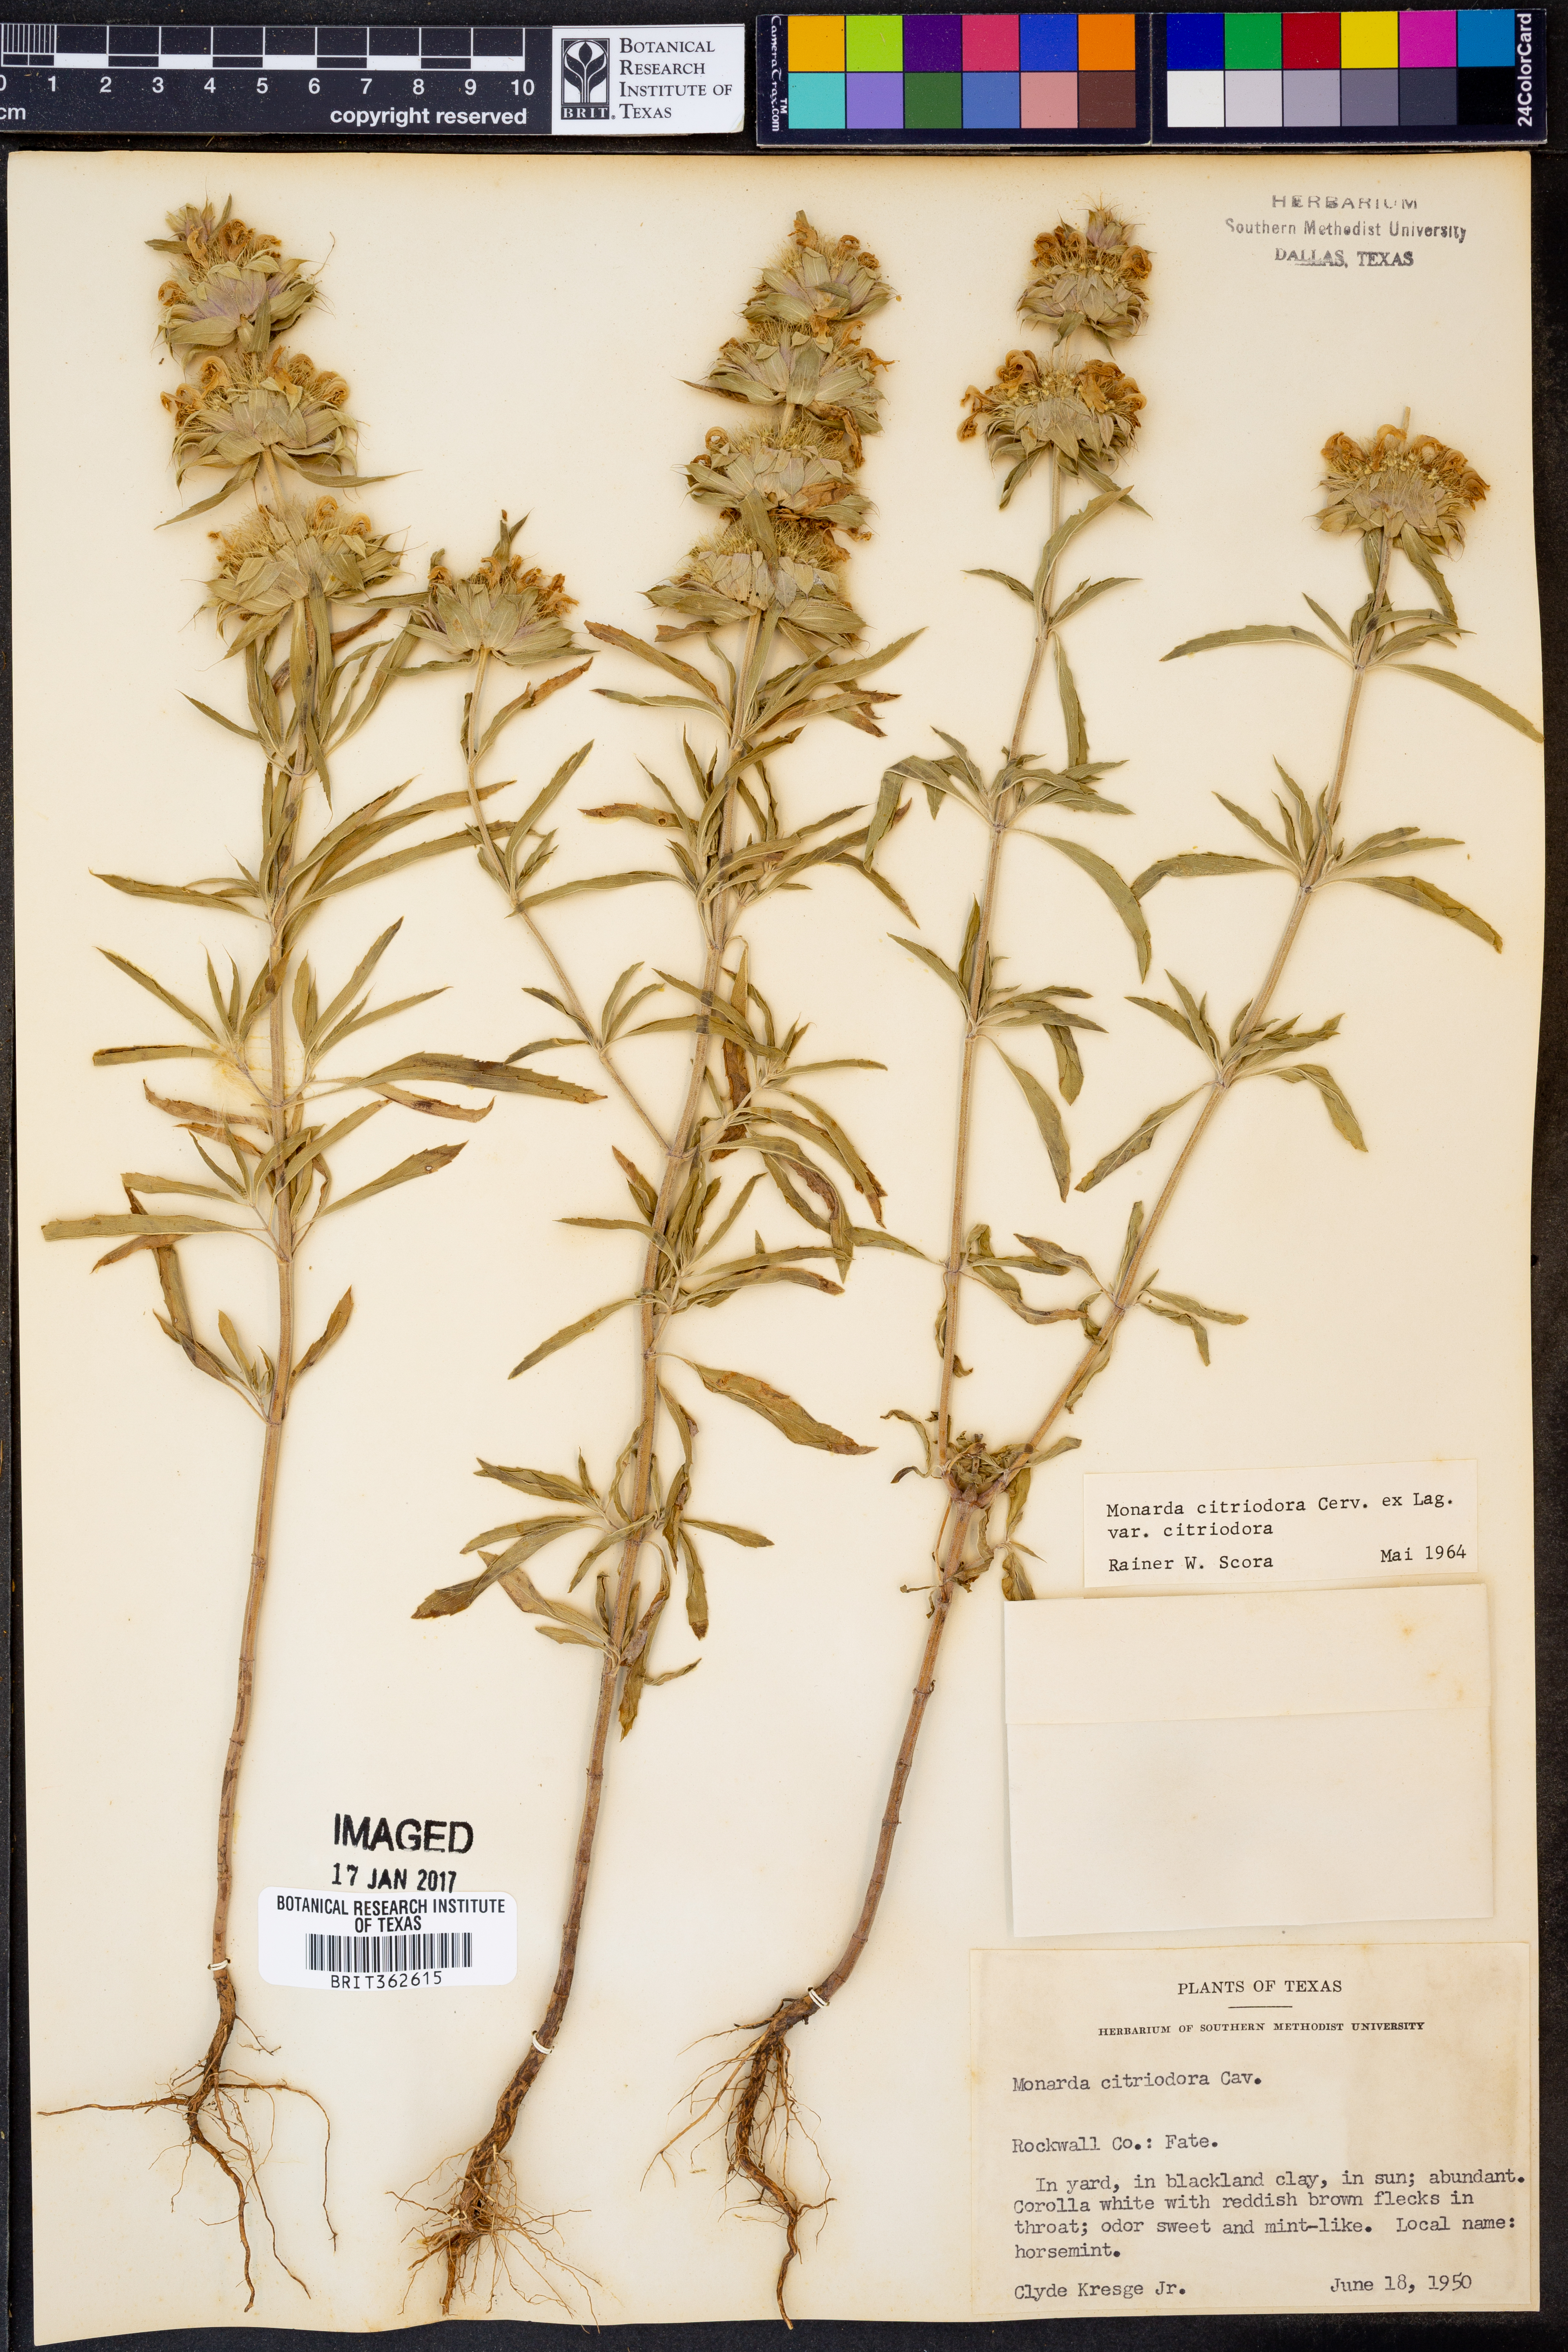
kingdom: Plantae
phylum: Tracheophyta
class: Magnoliopsida
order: Lamiales
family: Lamiaceae
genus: Monarda
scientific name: Monarda citriodora
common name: Lemon beebalm
